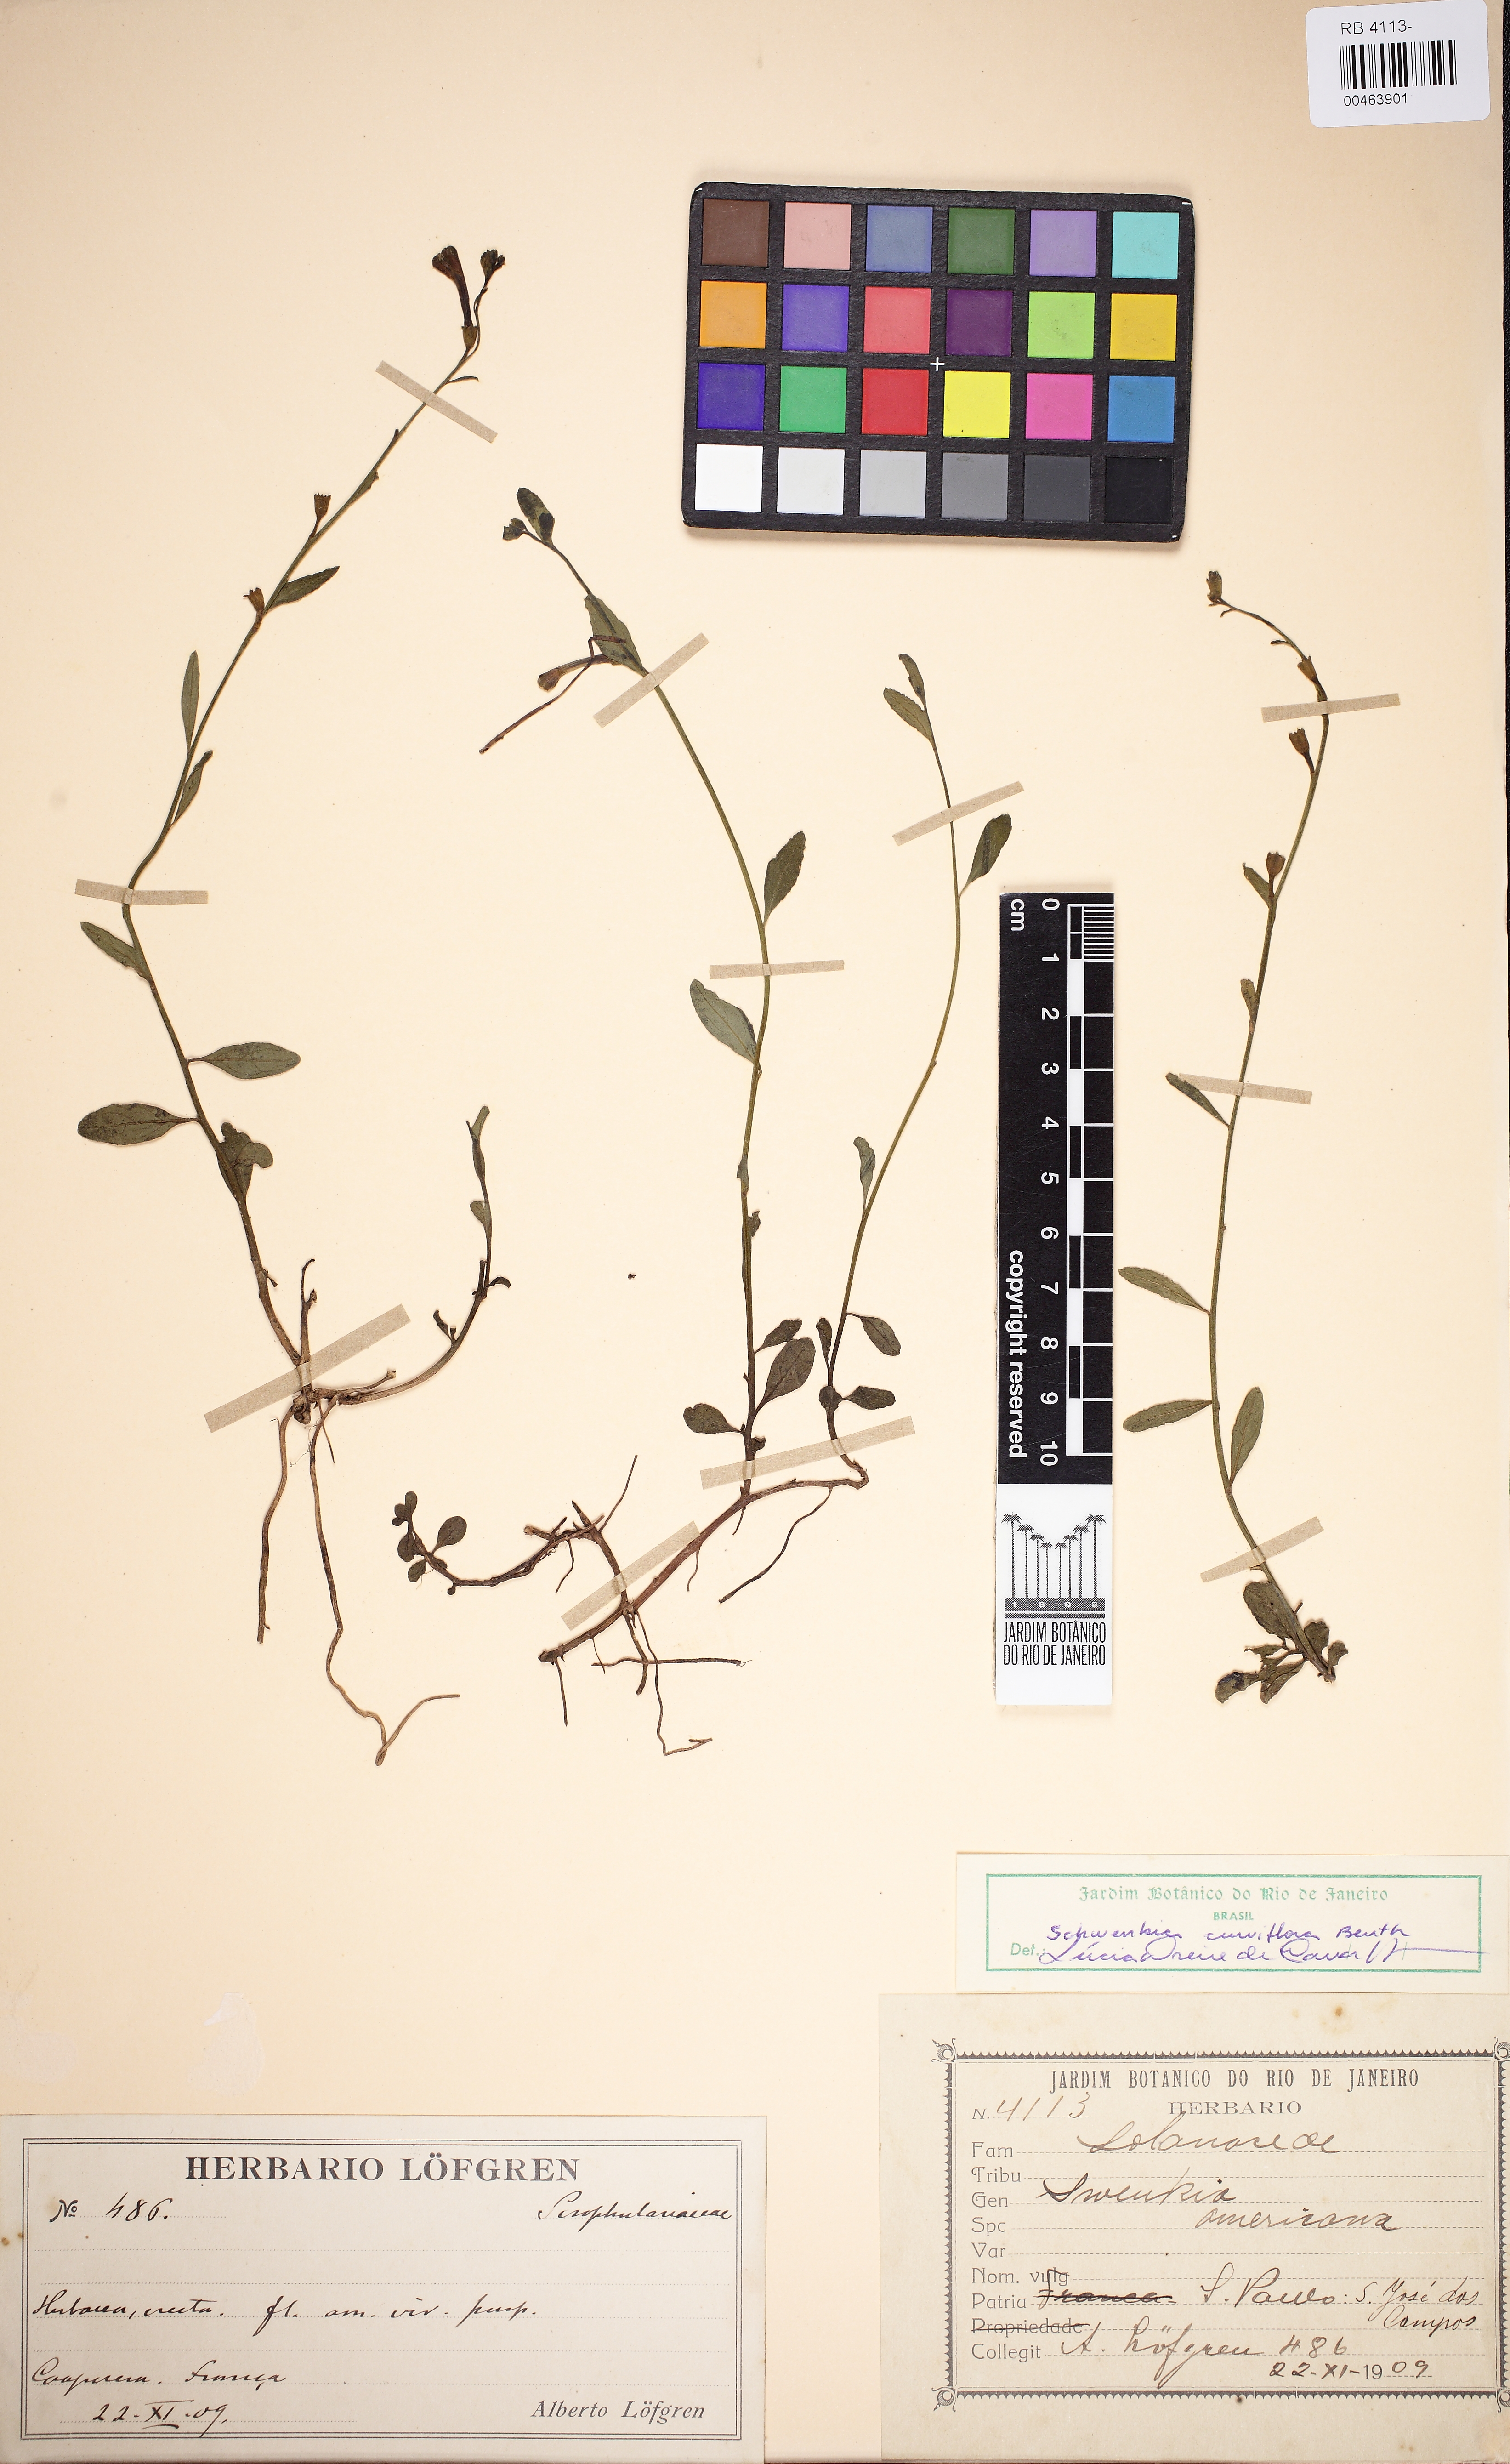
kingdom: Plantae
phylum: Tracheophyta
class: Magnoliopsida
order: Solanales
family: Solanaceae
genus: Schwenckia
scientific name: Schwenckia curviflora
